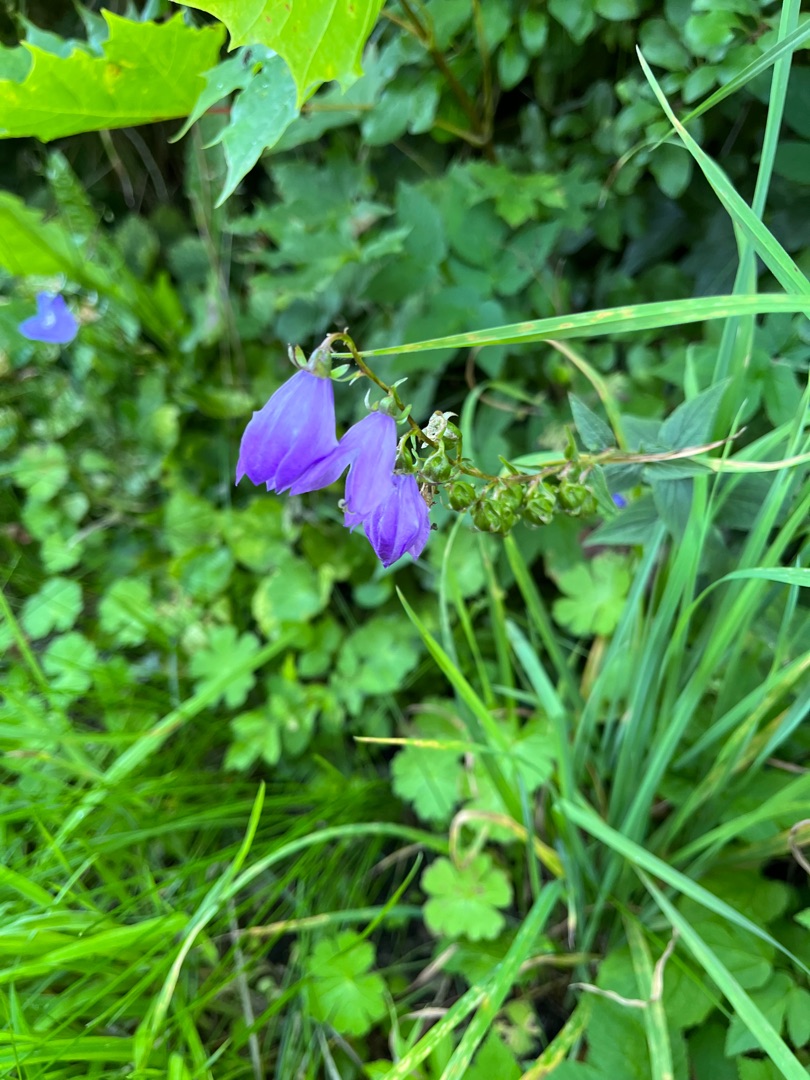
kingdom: Plantae
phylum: Tracheophyta
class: Magnoliopsida
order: Asterales
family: Campanulaceae
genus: Campanula
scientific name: Campanula rapunculoides
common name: Ensidig klokke
